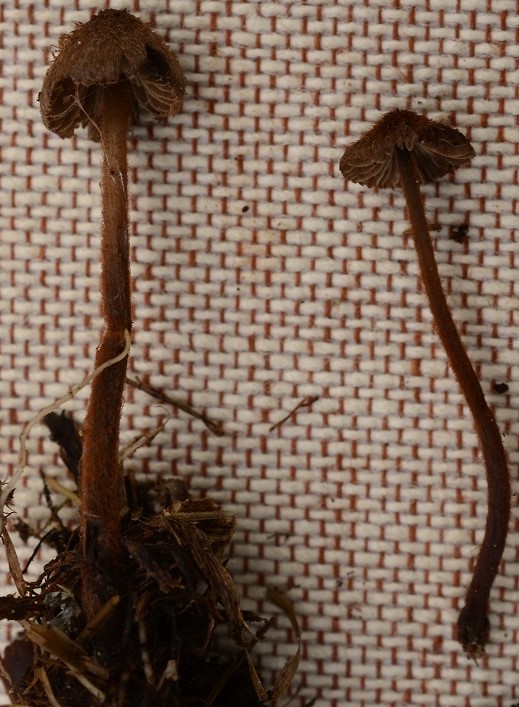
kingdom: Fungi
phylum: Basidiomycota
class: Agaricomycetes
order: Agaricales
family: Entolomataceae
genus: Entoloma
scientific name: Entoloma strigosissimum
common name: stridhåret rødblad
